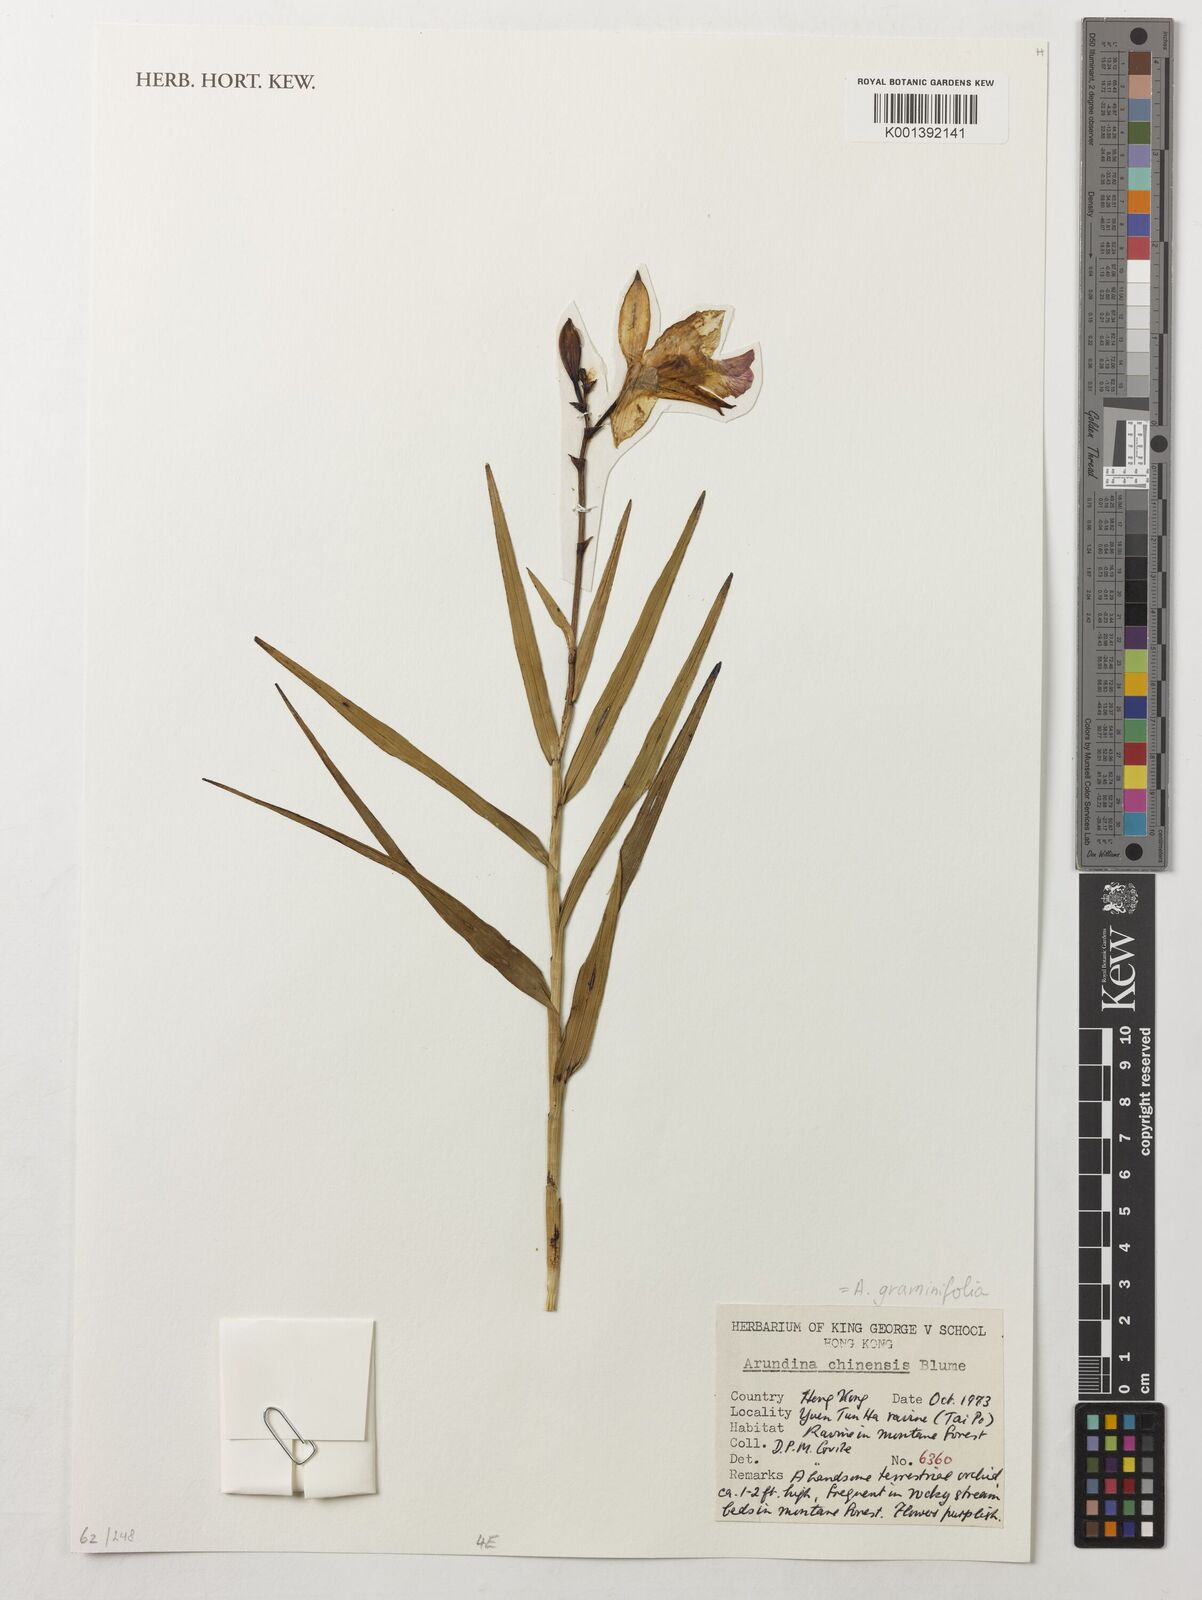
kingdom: Plantae
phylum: Tracheophyta
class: Liliopsida
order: Asparagales
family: Orchidaceae
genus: Arundina
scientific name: Arundina graminifolia
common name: Bamboo orchid
